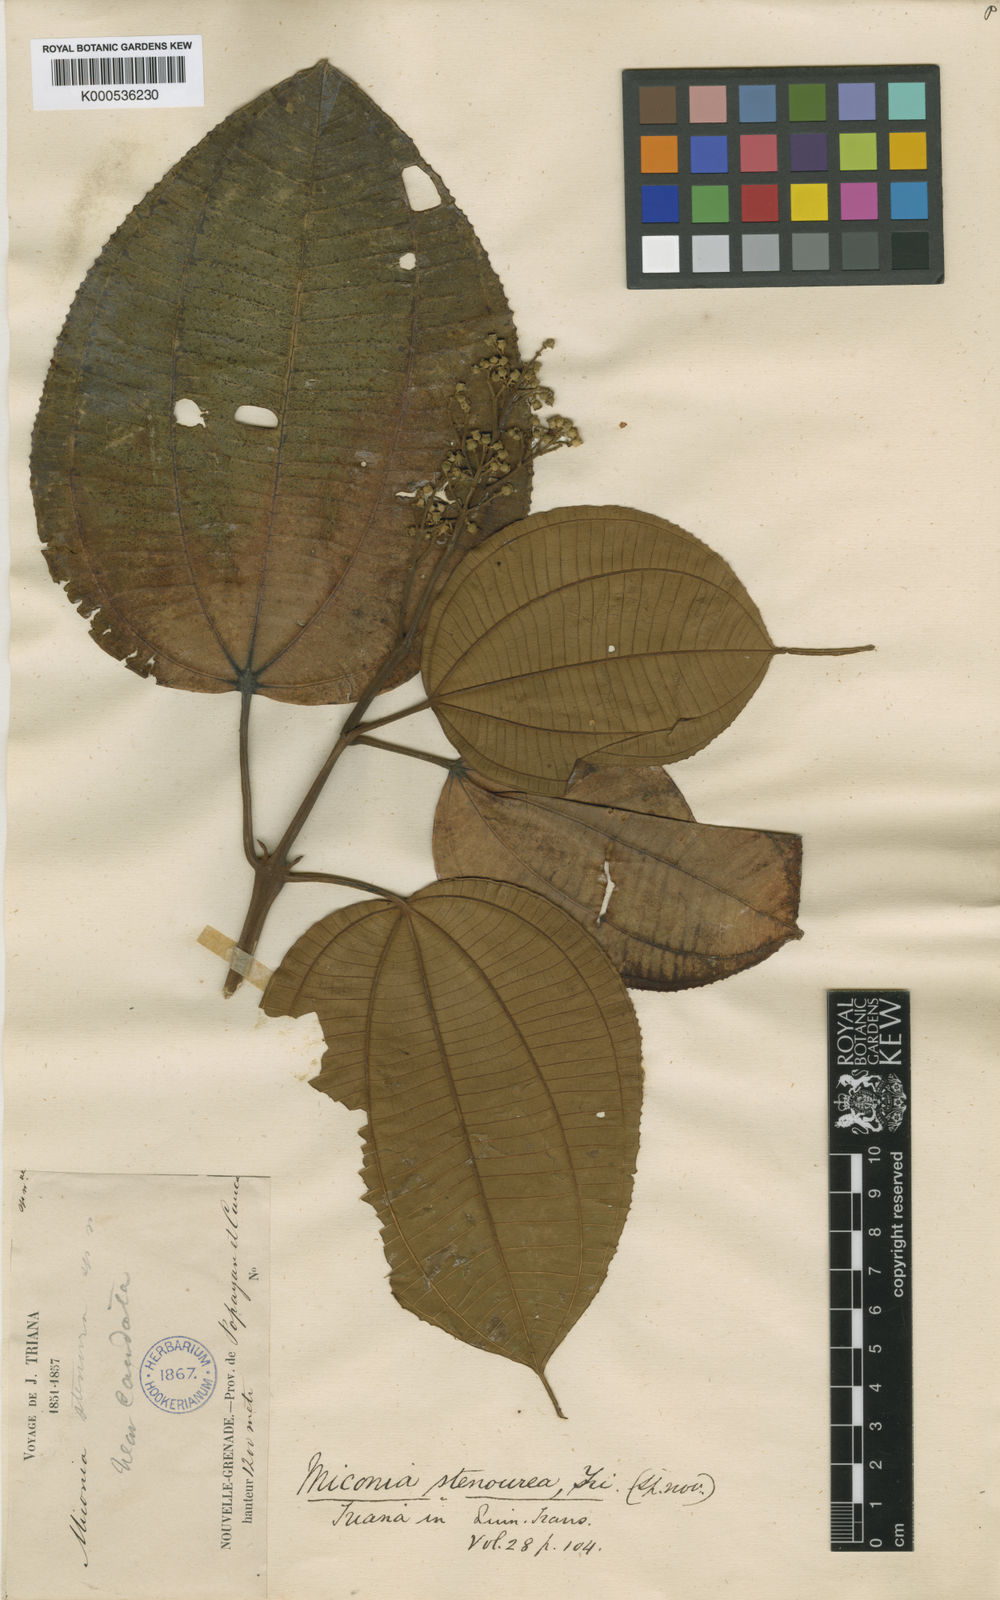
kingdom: Plantae
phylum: Tracheophyta
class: Magnoliopsida
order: Myrtales
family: Melastomataceae
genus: Miconia
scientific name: Miconia stenourea
